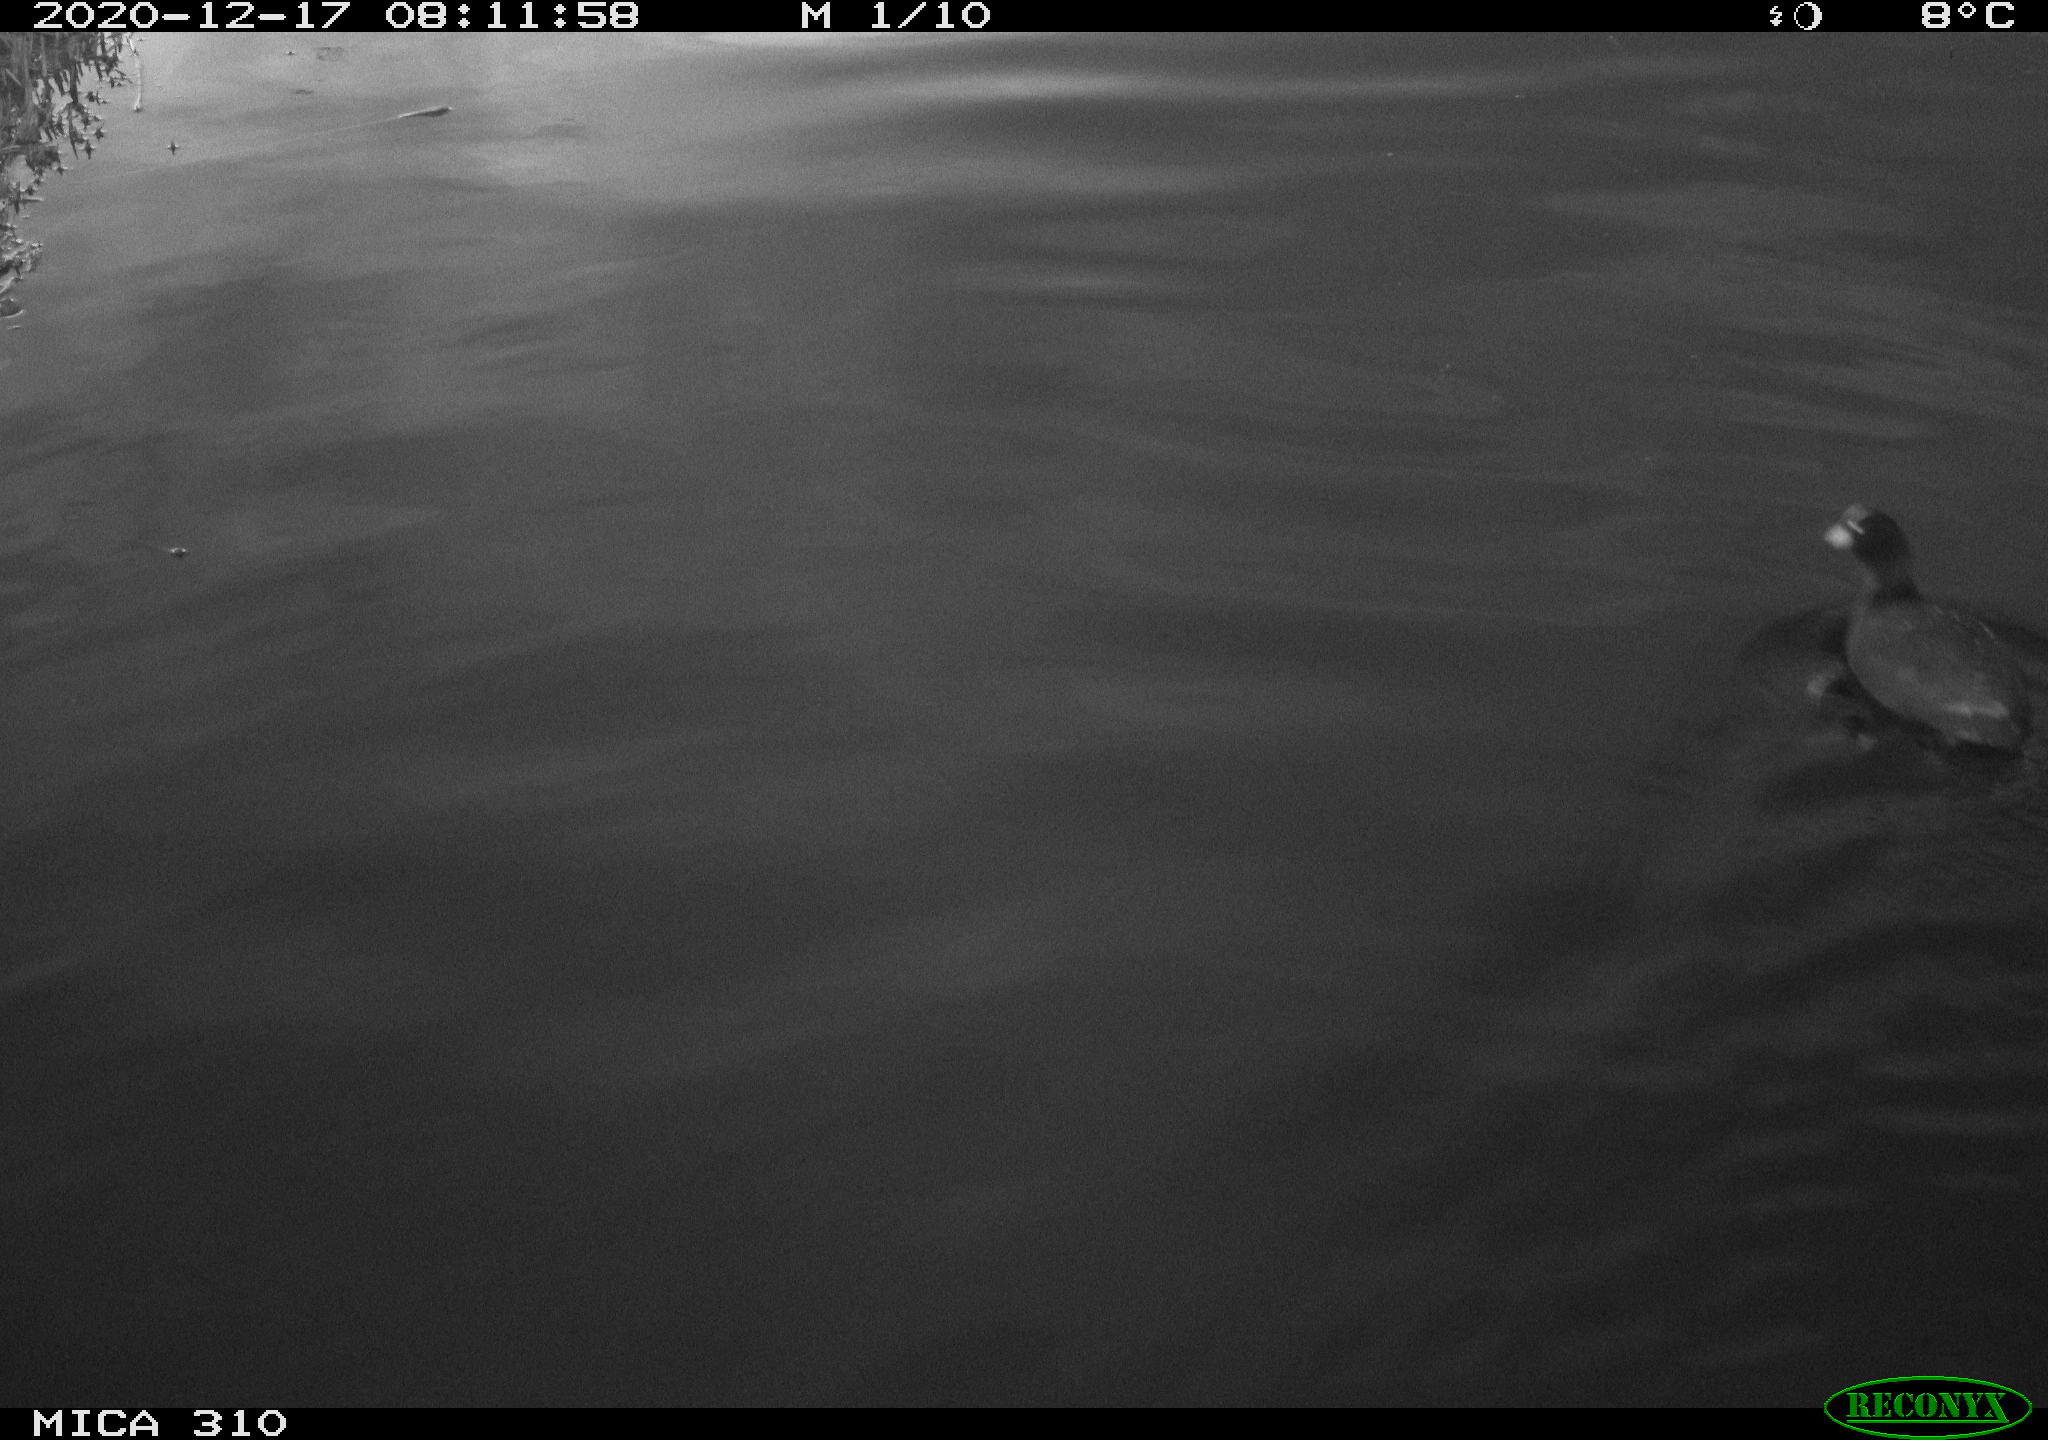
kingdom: Animalia
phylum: Chordata
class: Aves
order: Gruiformes
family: Rallidae
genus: Fulica
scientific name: Fulica atra
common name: Eurasian coot
